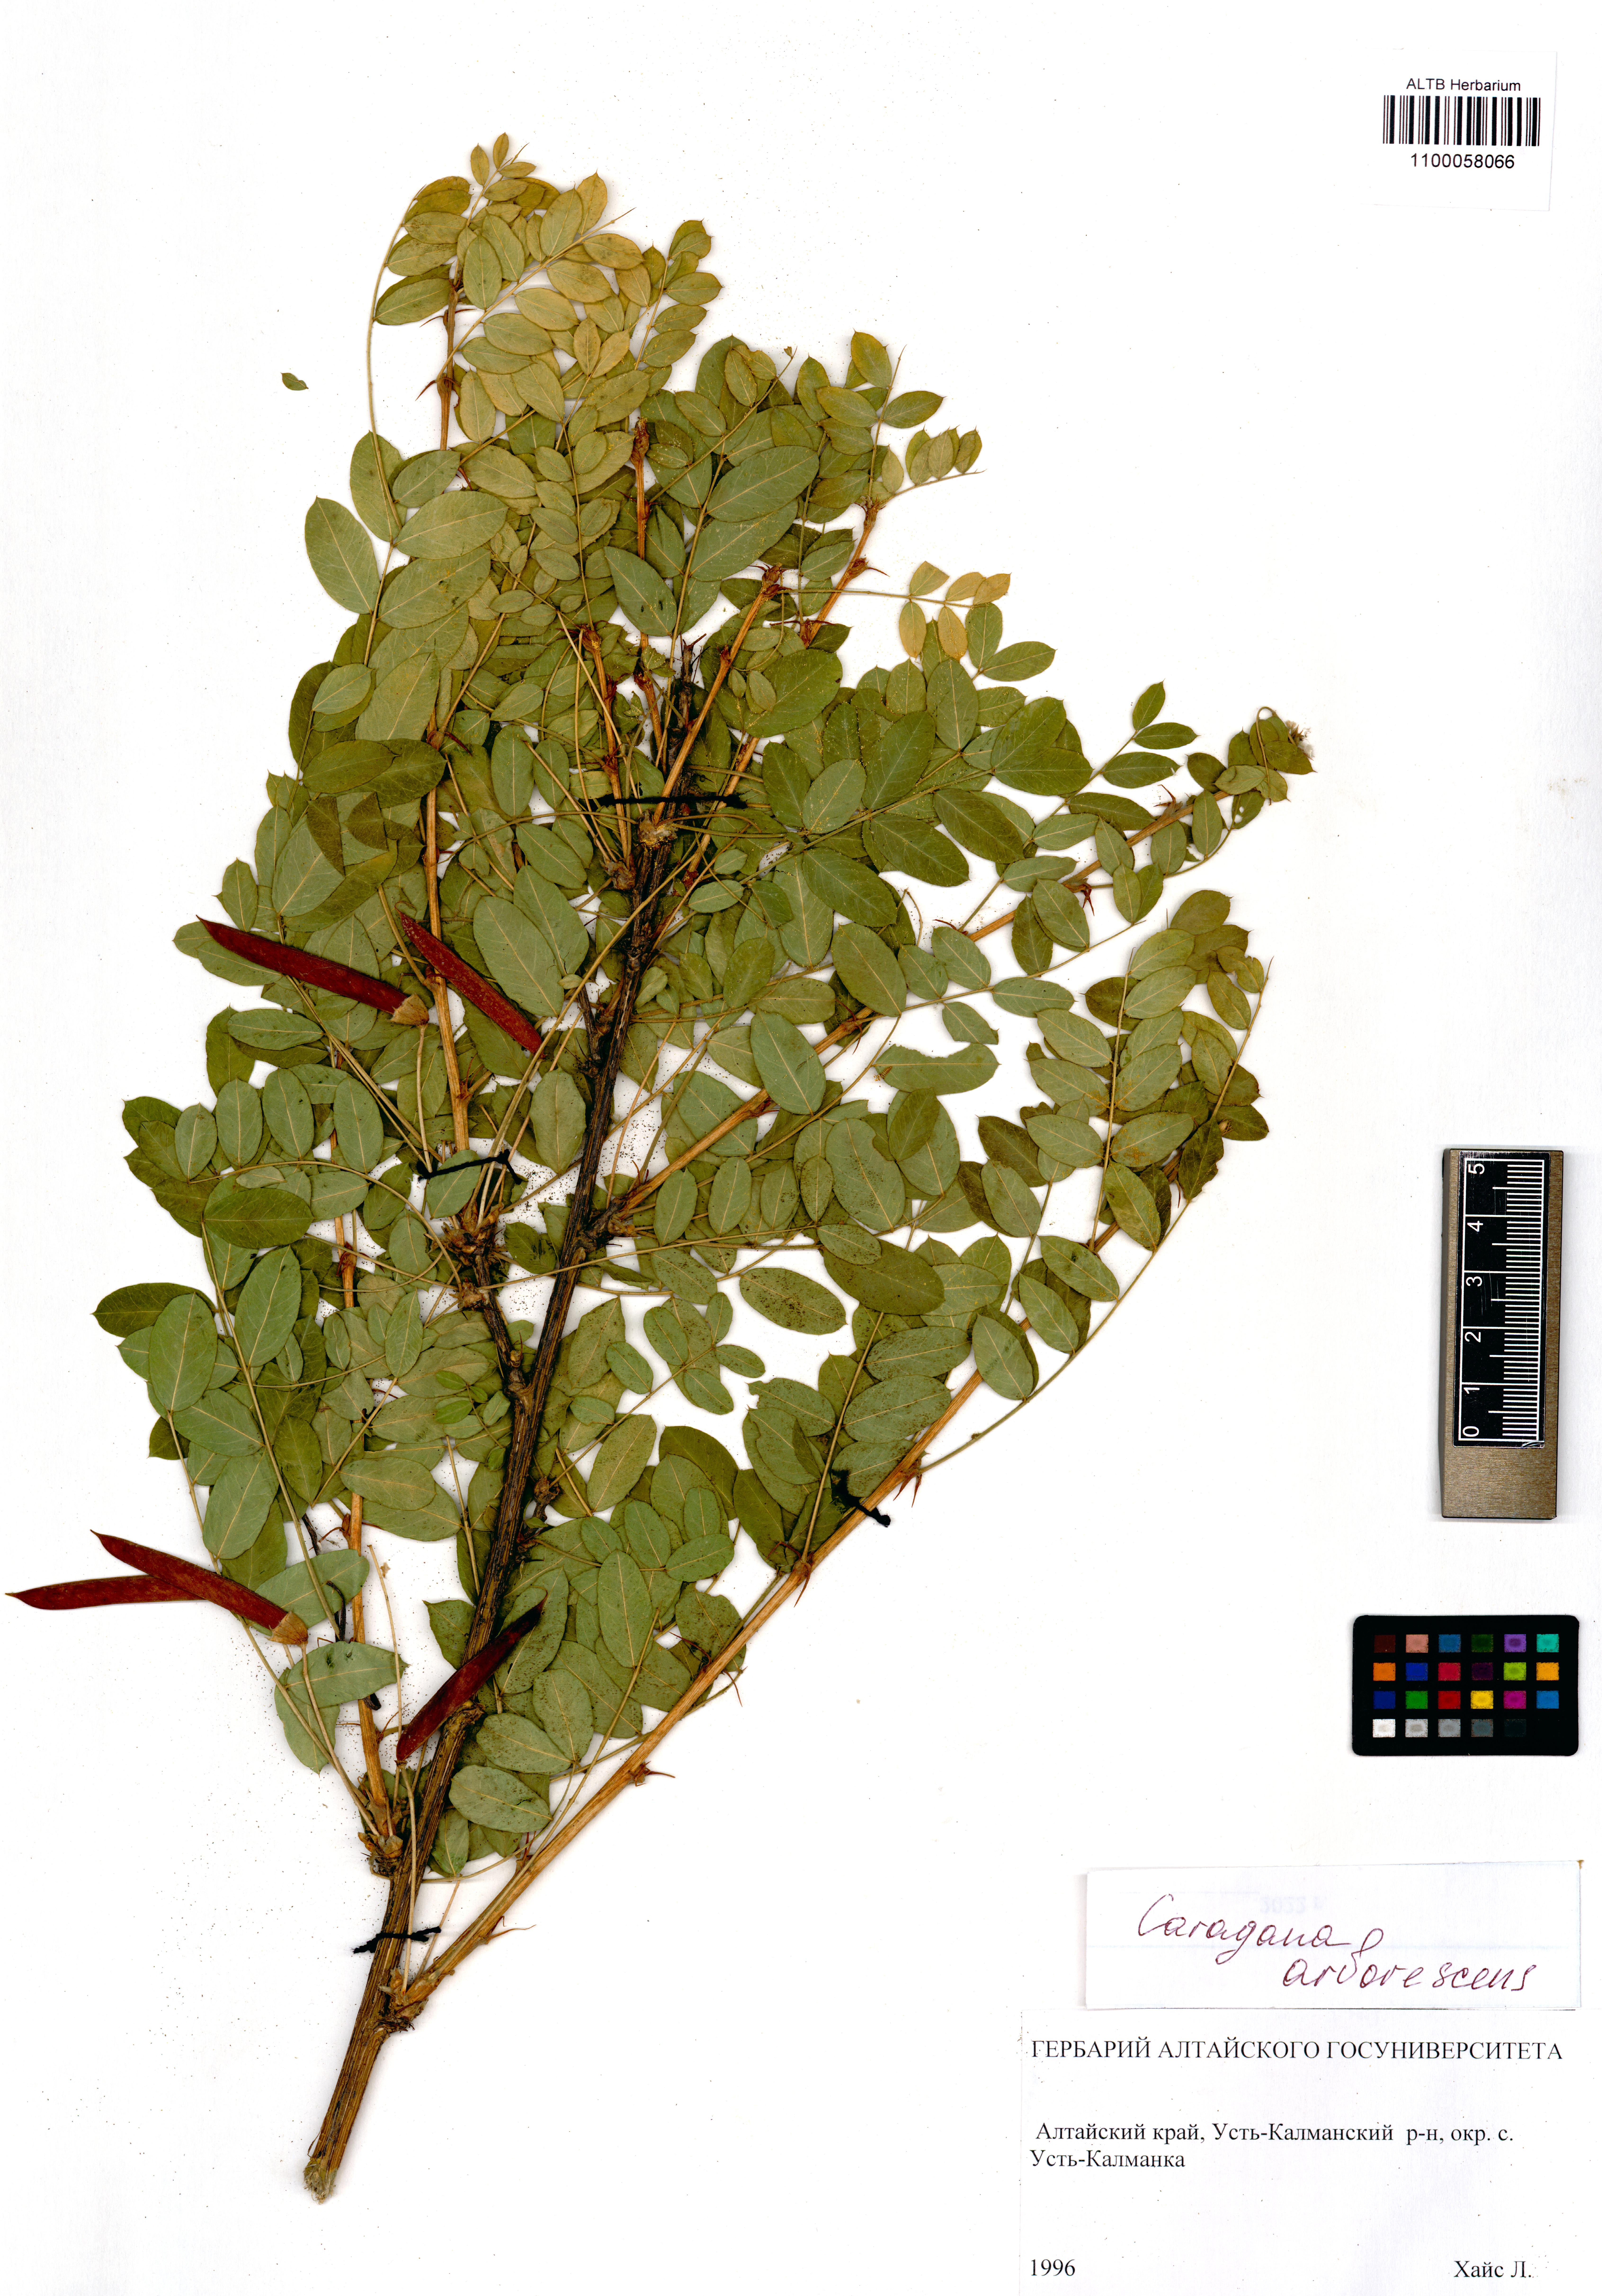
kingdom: Plantae
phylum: Tracheophyta
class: Magnoliopsida
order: Fabales
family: Fabaceae
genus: Caragana
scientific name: Caragana arborescens
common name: Siberian peashrub
